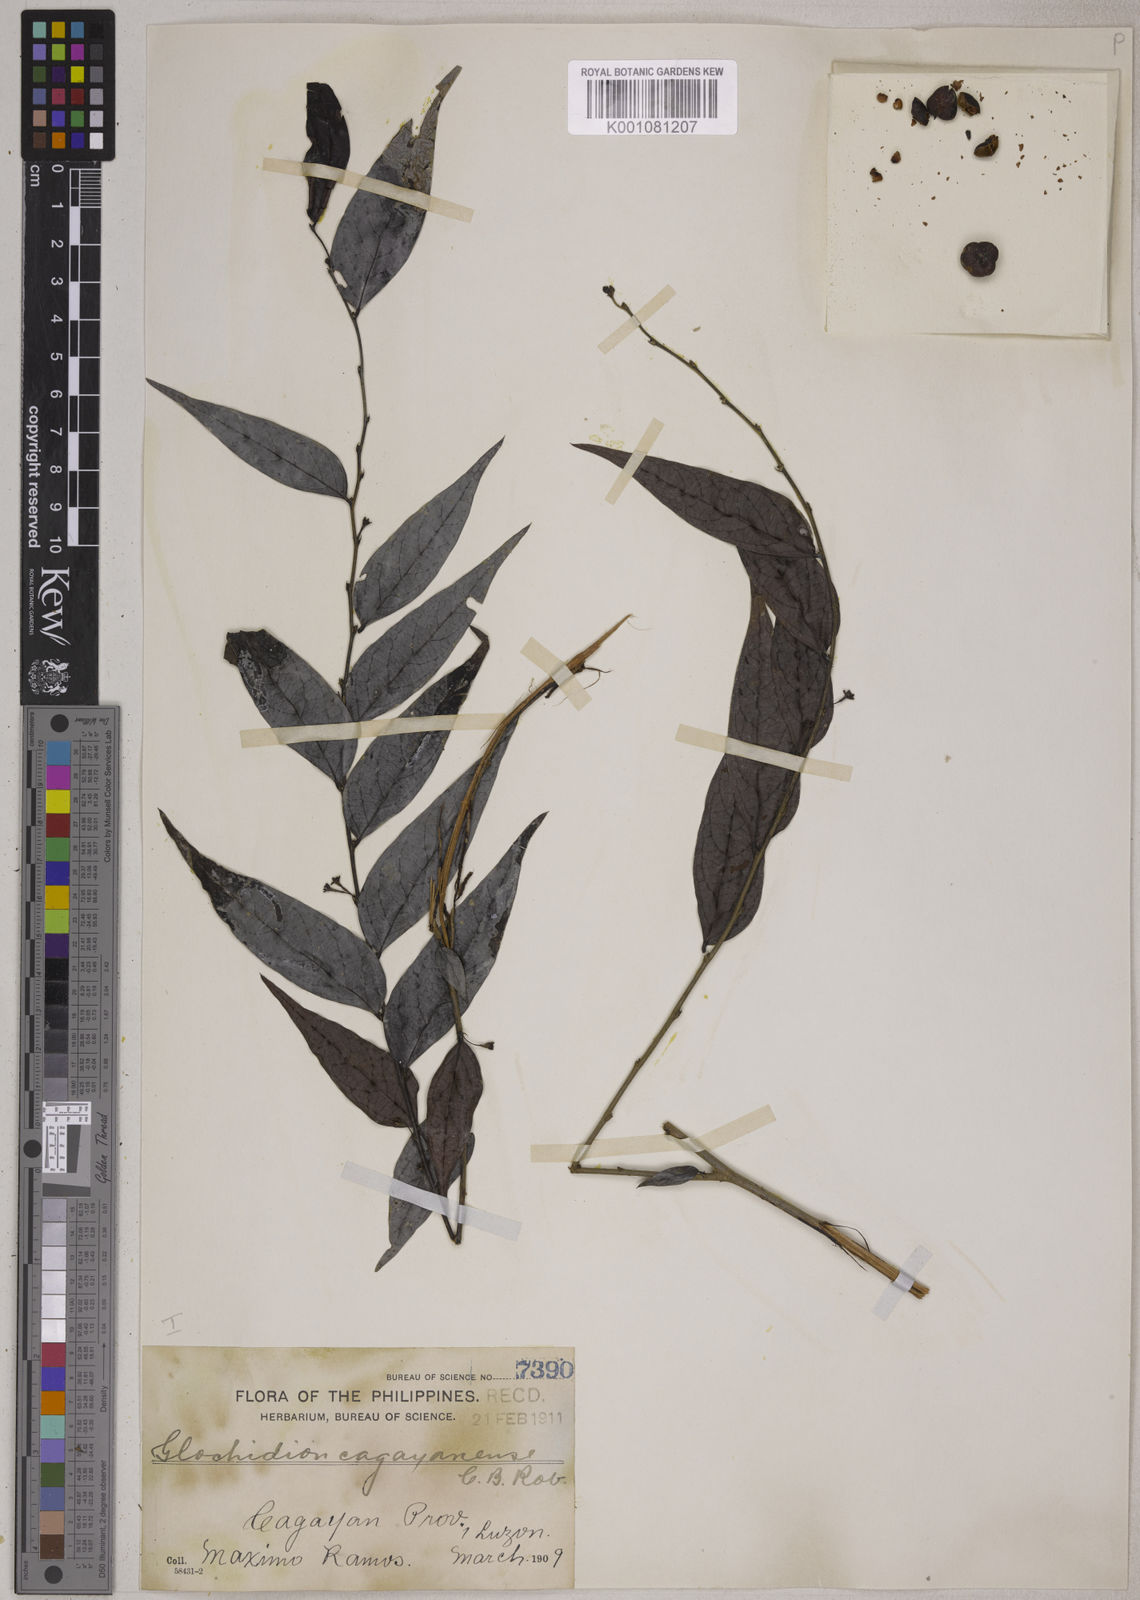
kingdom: Plantae
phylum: Tracheophyta
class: Magnoliopsida
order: Malpighiales
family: Phyllanthaceae
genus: Glochidion
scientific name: Glochidion cagayanense
